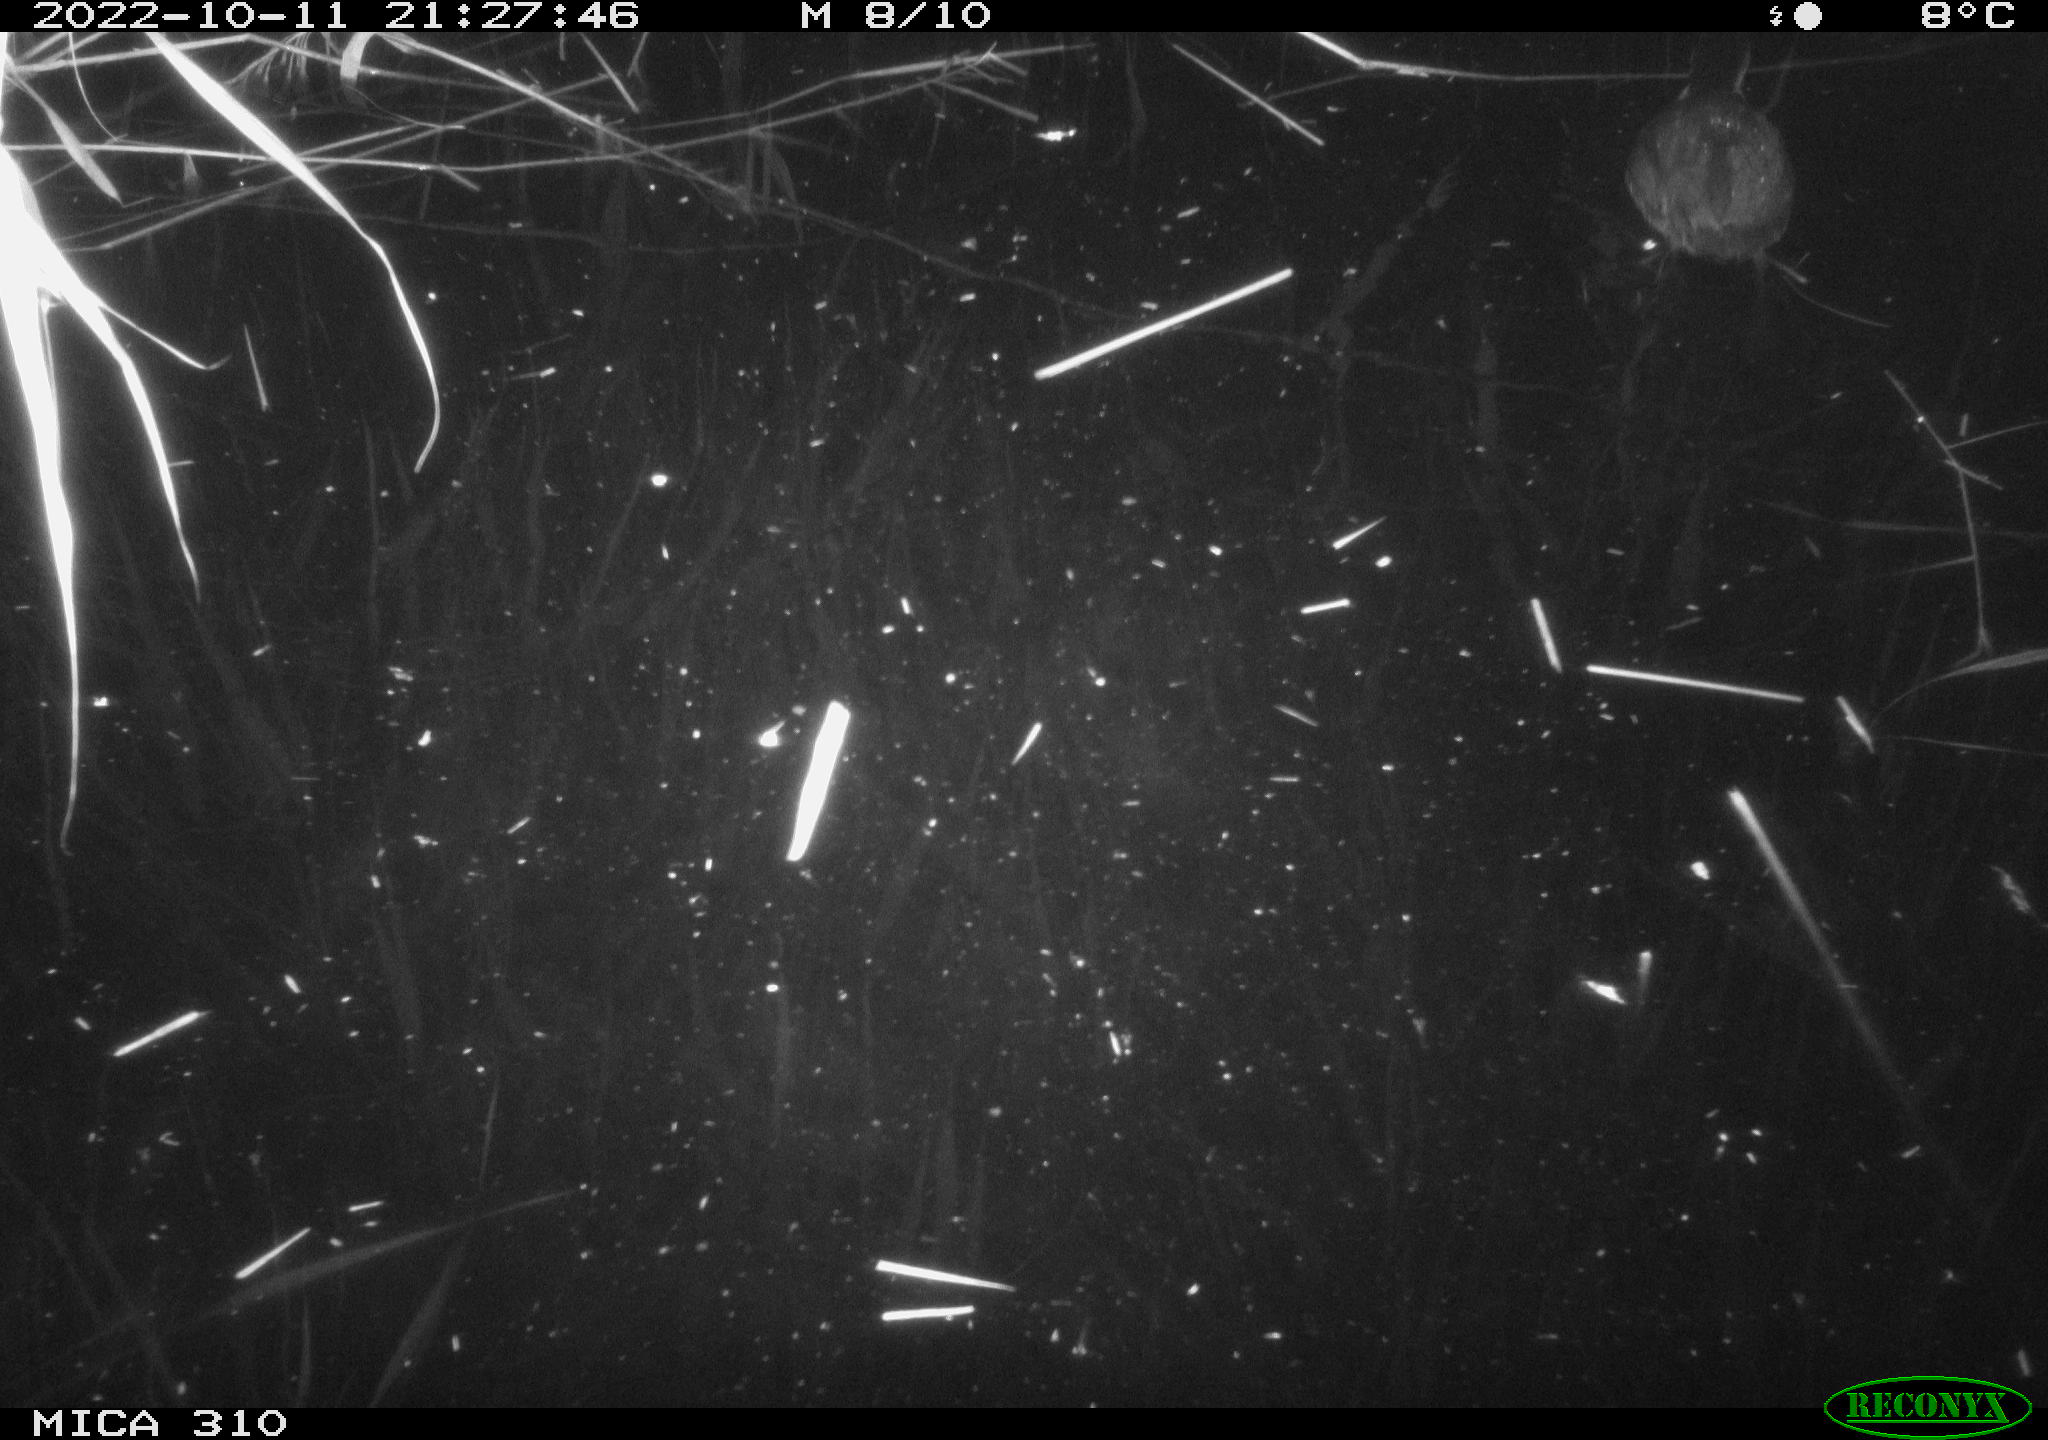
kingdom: Animalia
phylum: Chordata
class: Aves
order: Gruiformes
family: Rallidae
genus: Fulica
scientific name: Fulica atra
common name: Eurasian coot
